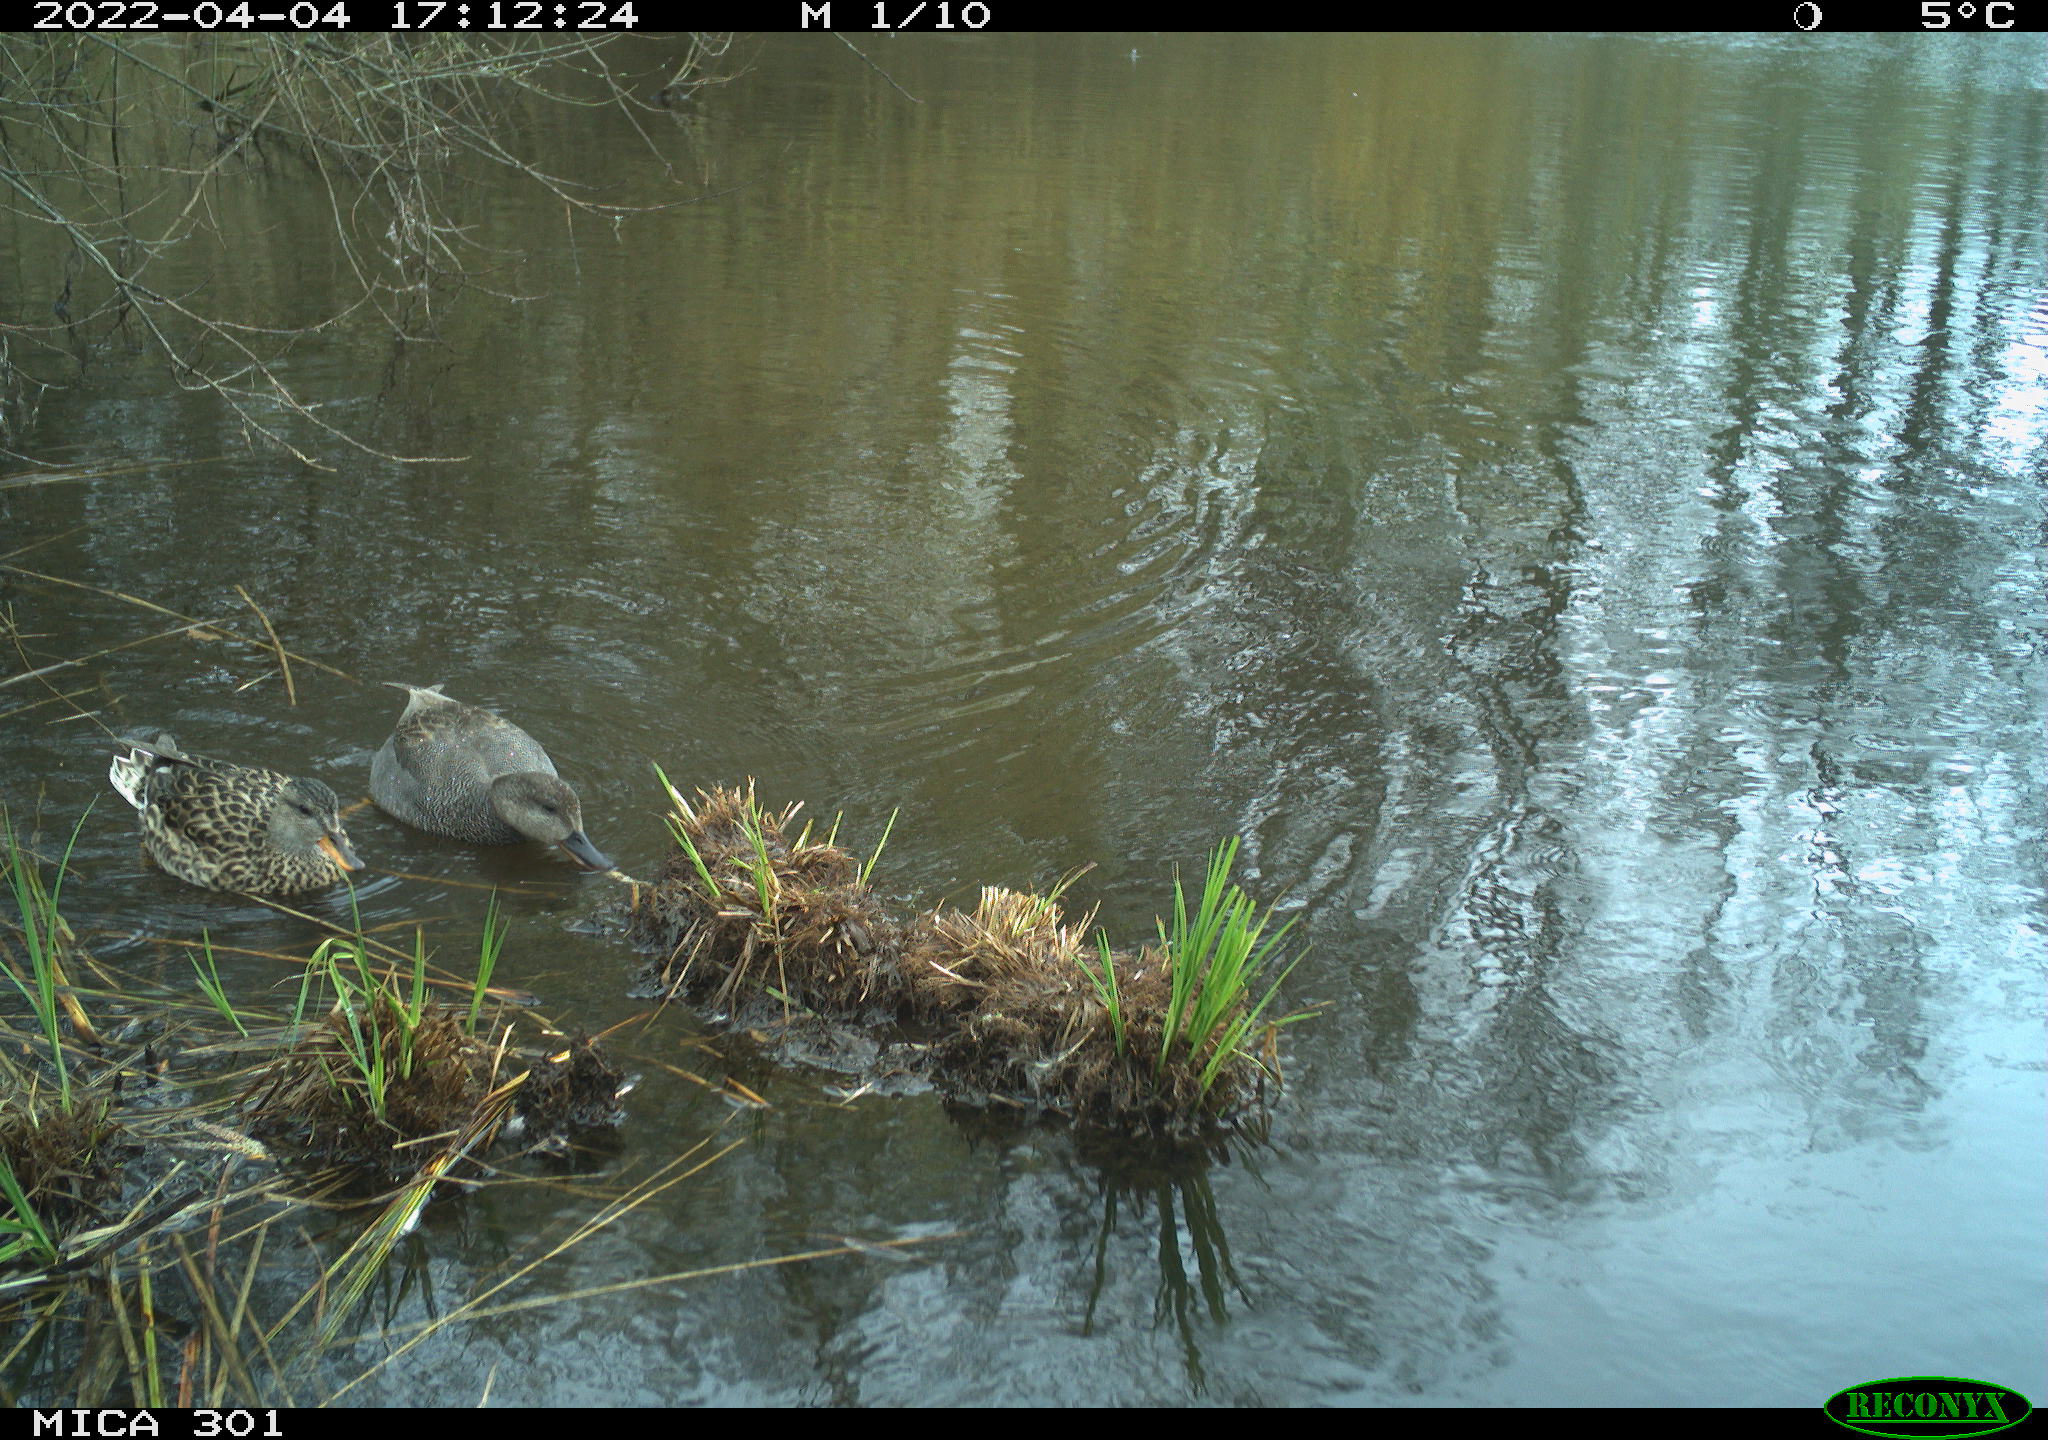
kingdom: Animalia
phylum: Chordata
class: Aves
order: Anseriformes
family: Anatidae
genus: Anas
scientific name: Anas platyrhynchos
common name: Mallard
